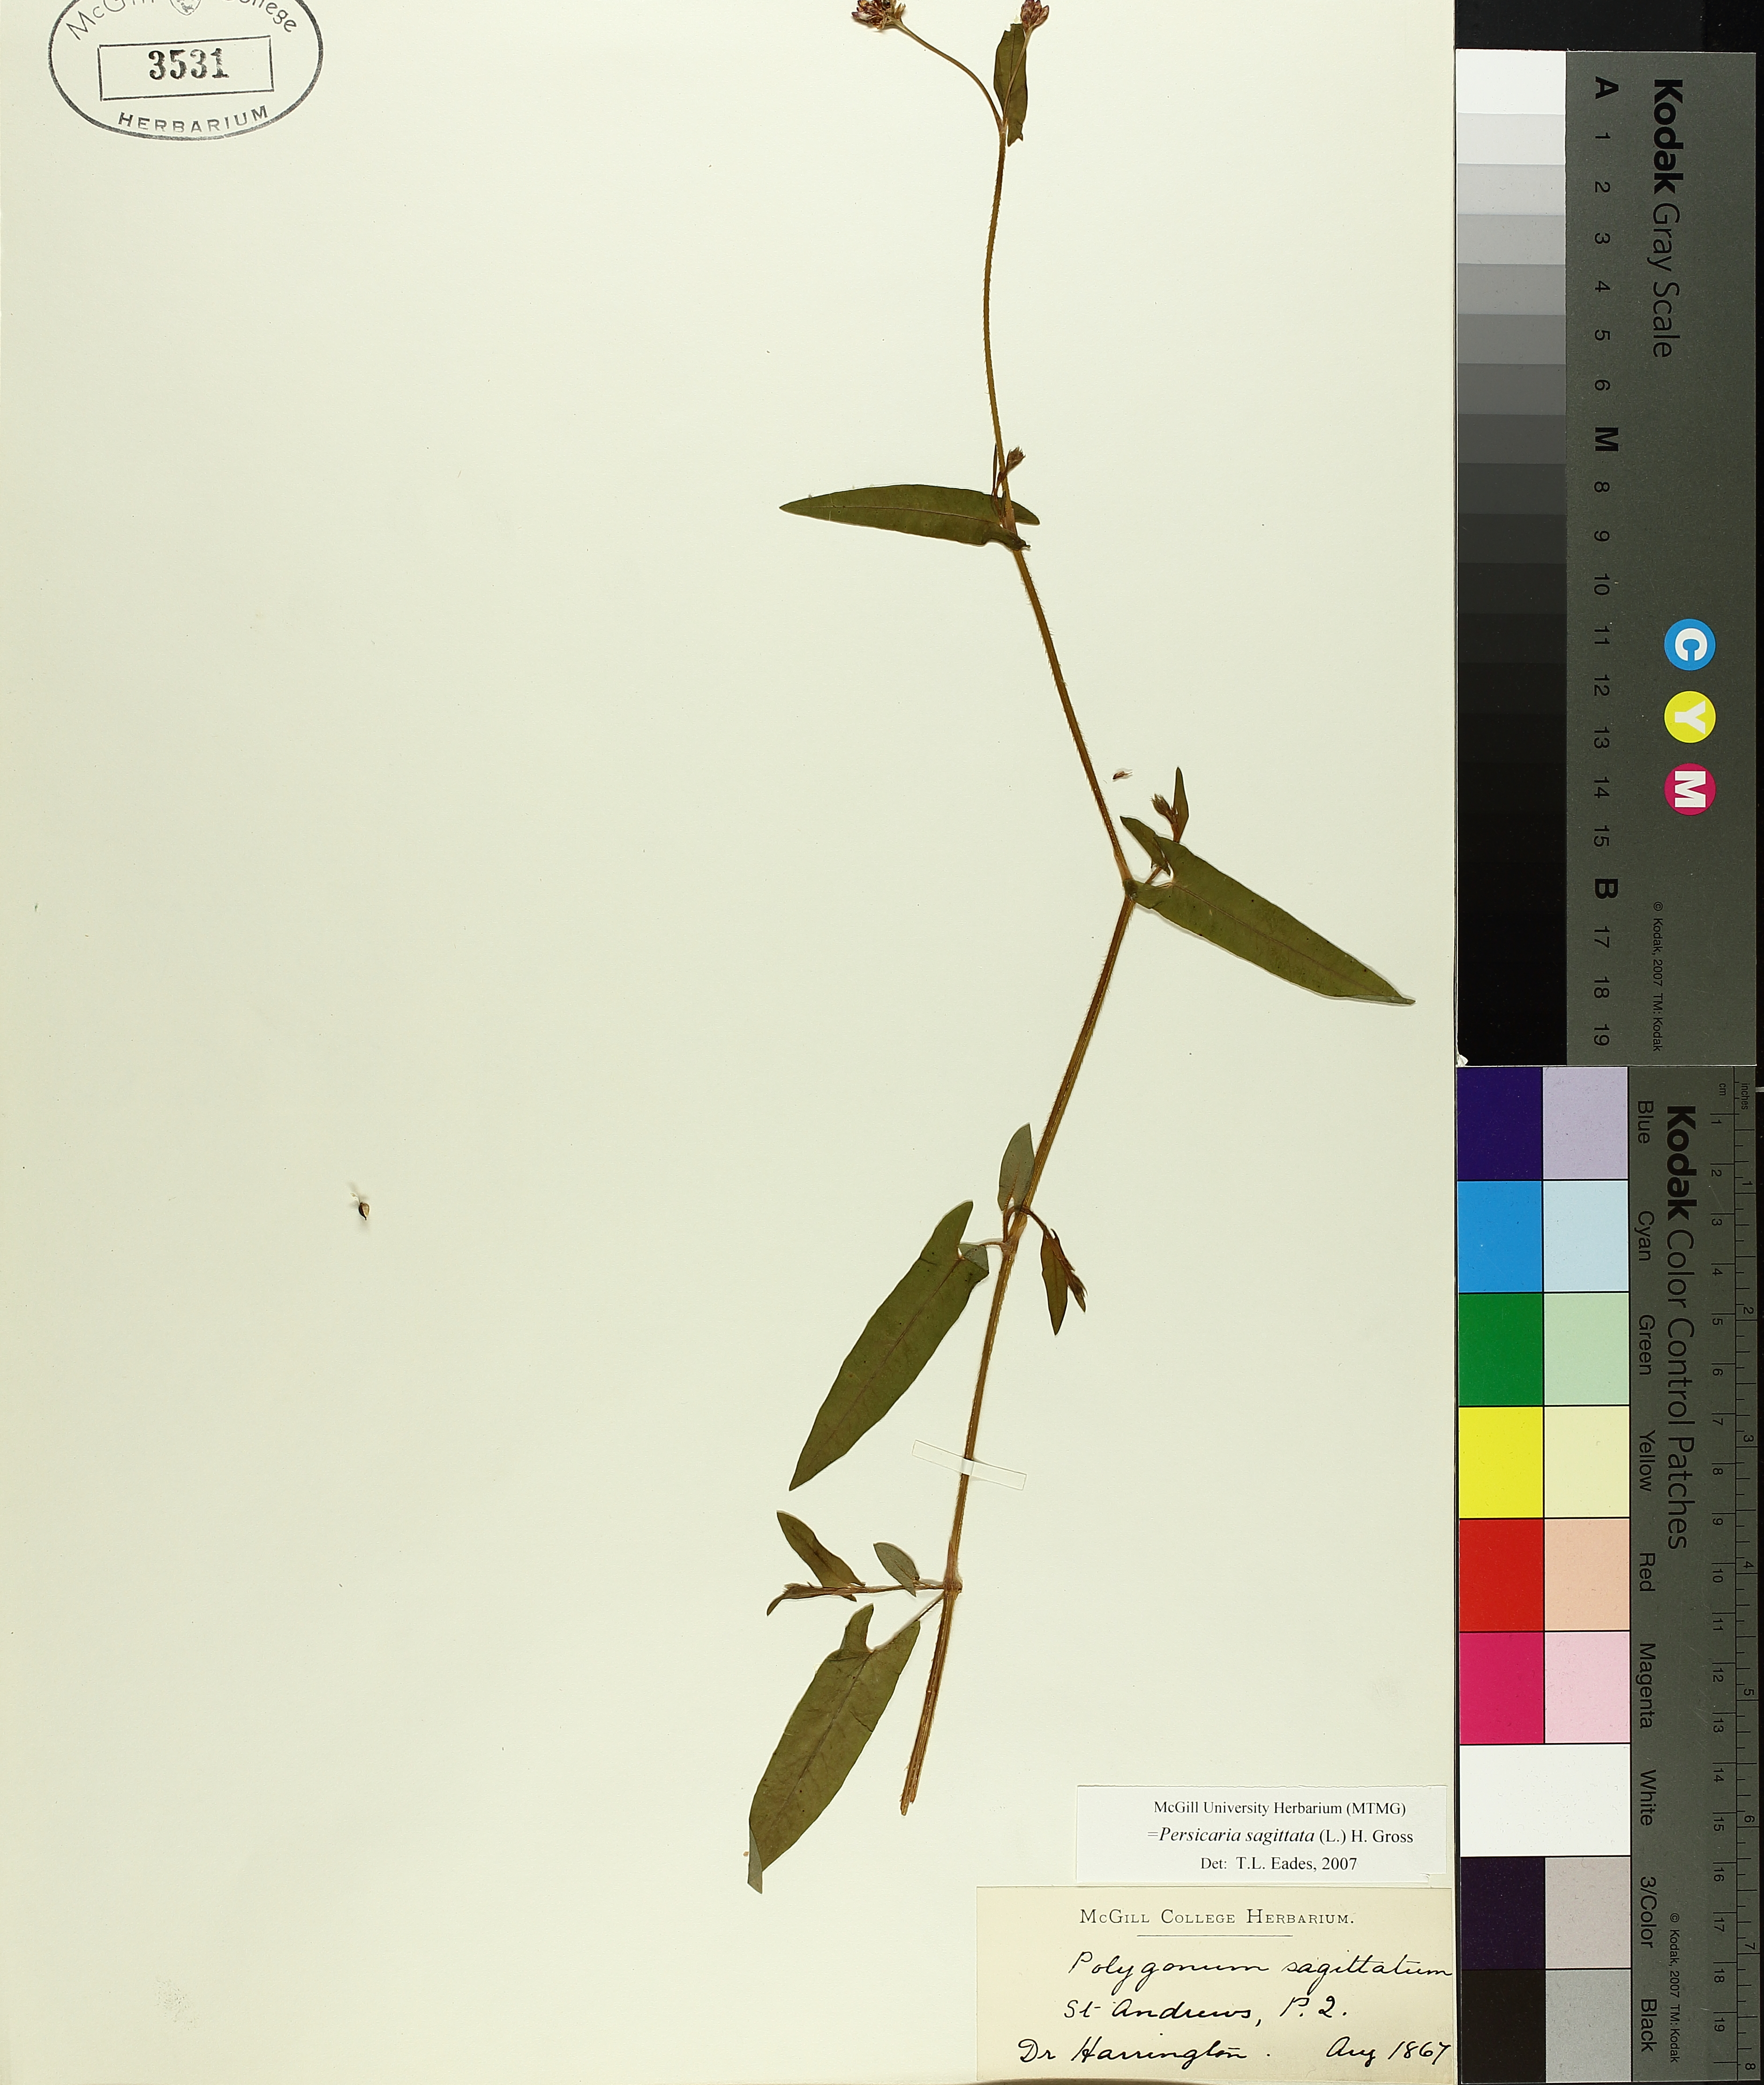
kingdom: Plantae
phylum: Tracheophyta
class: Magnoliopsida
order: Caryophyllales
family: Polygonaceae
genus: Persicaria
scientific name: Persicaria sagittata
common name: American tearthumb
